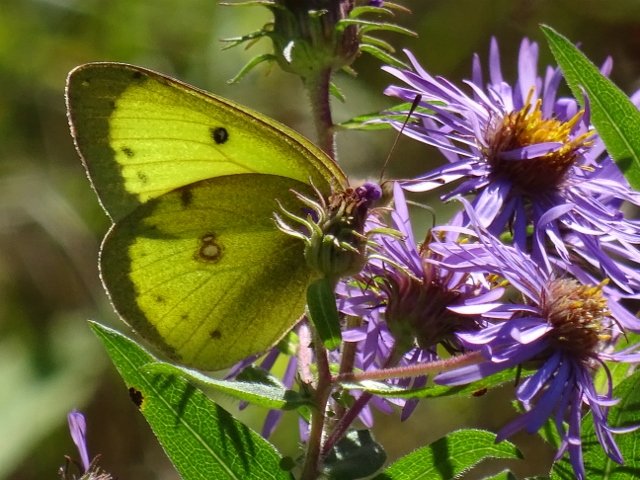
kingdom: Animalia
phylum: Arthropoda
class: Insecta
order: Lepidoptera
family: Pieridae
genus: Colias
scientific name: Colias philodice
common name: Clouded Sulphur
